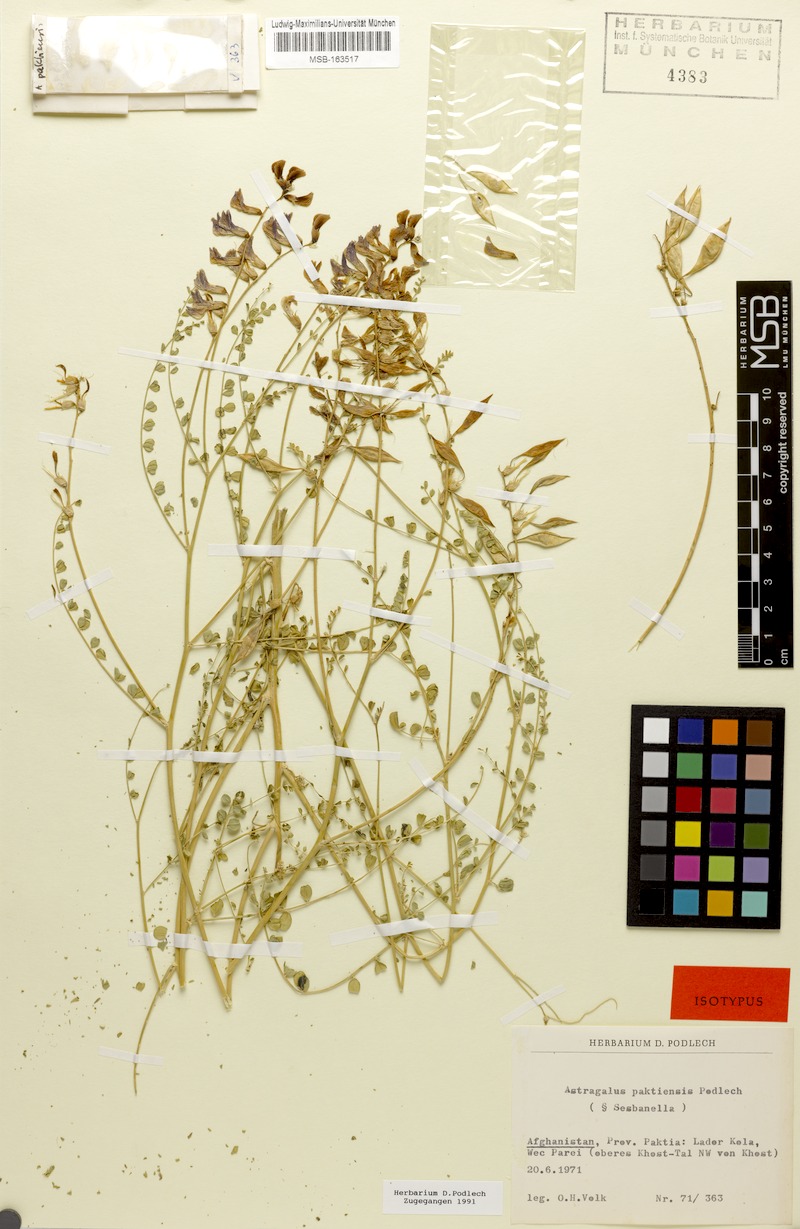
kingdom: Plantae
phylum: Tracheophyta
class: Magnoliopsida
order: Fabales
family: Fabaceae
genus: Astragalus
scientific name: Astragalus paktiensis
